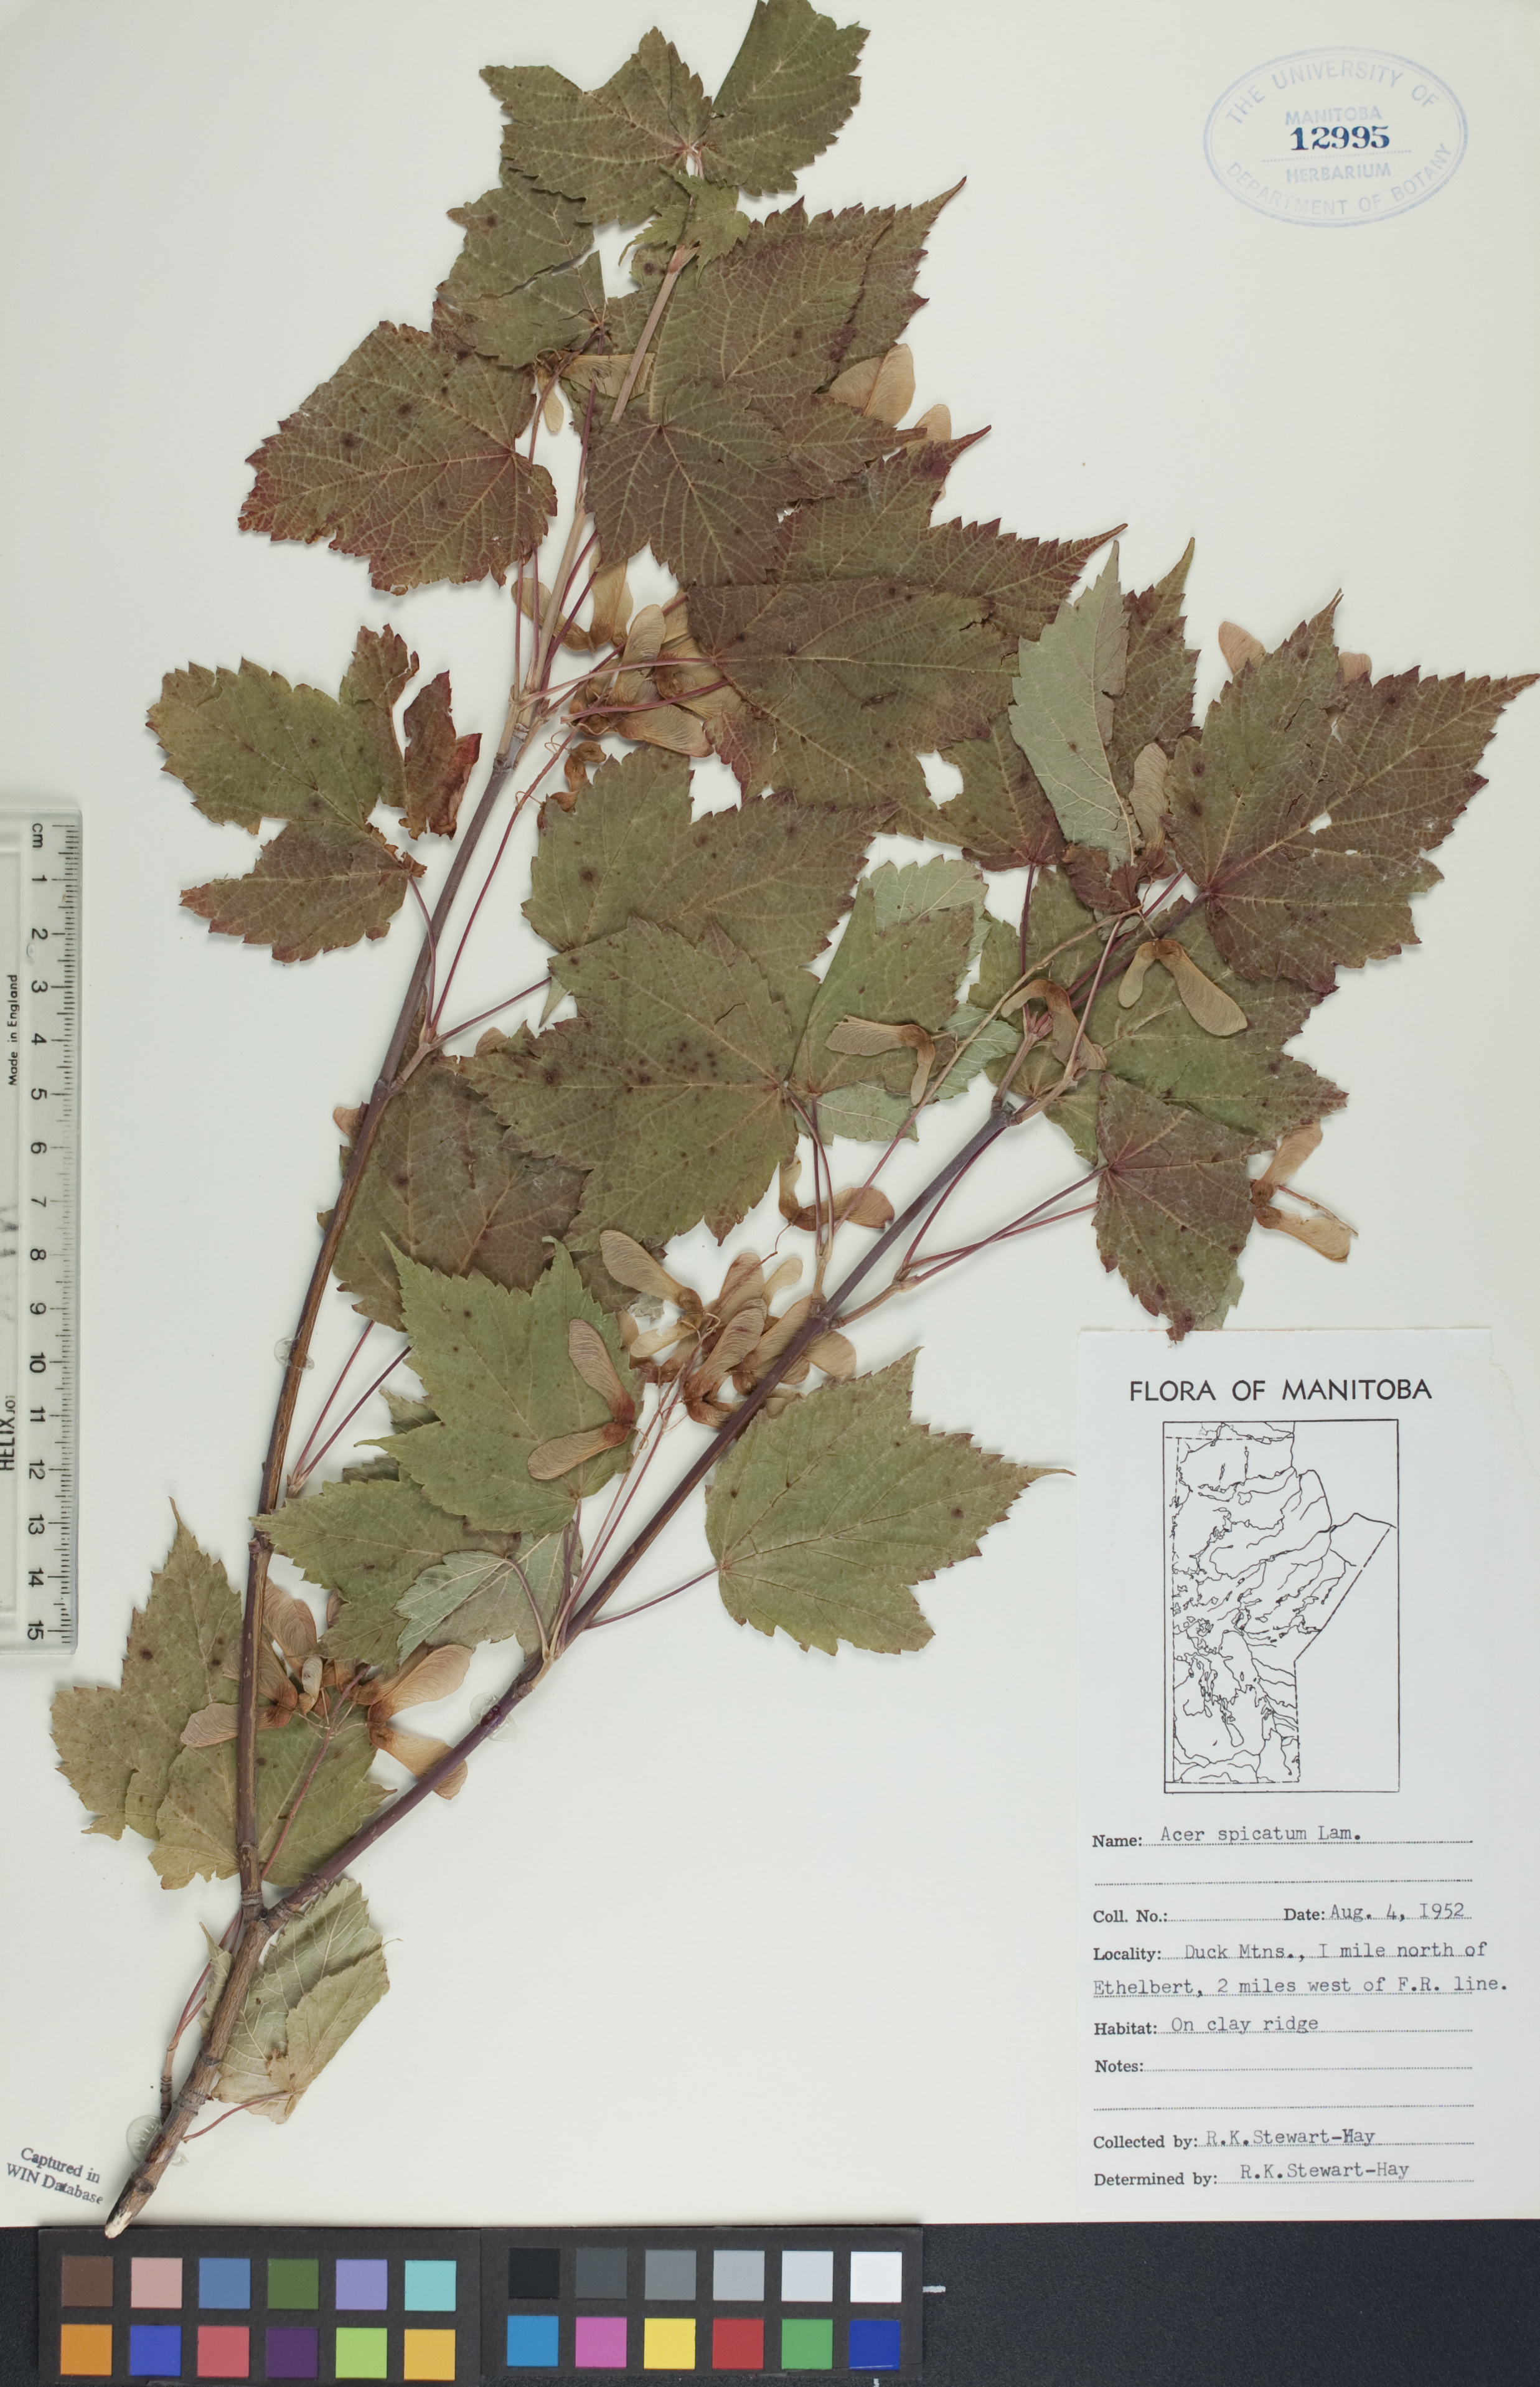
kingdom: Plantae
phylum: Tracheophyta
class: Magnoliopsida
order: Sapindales
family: Sapindaceae
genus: Acer
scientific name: Acer spicatum
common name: Mountain maple
